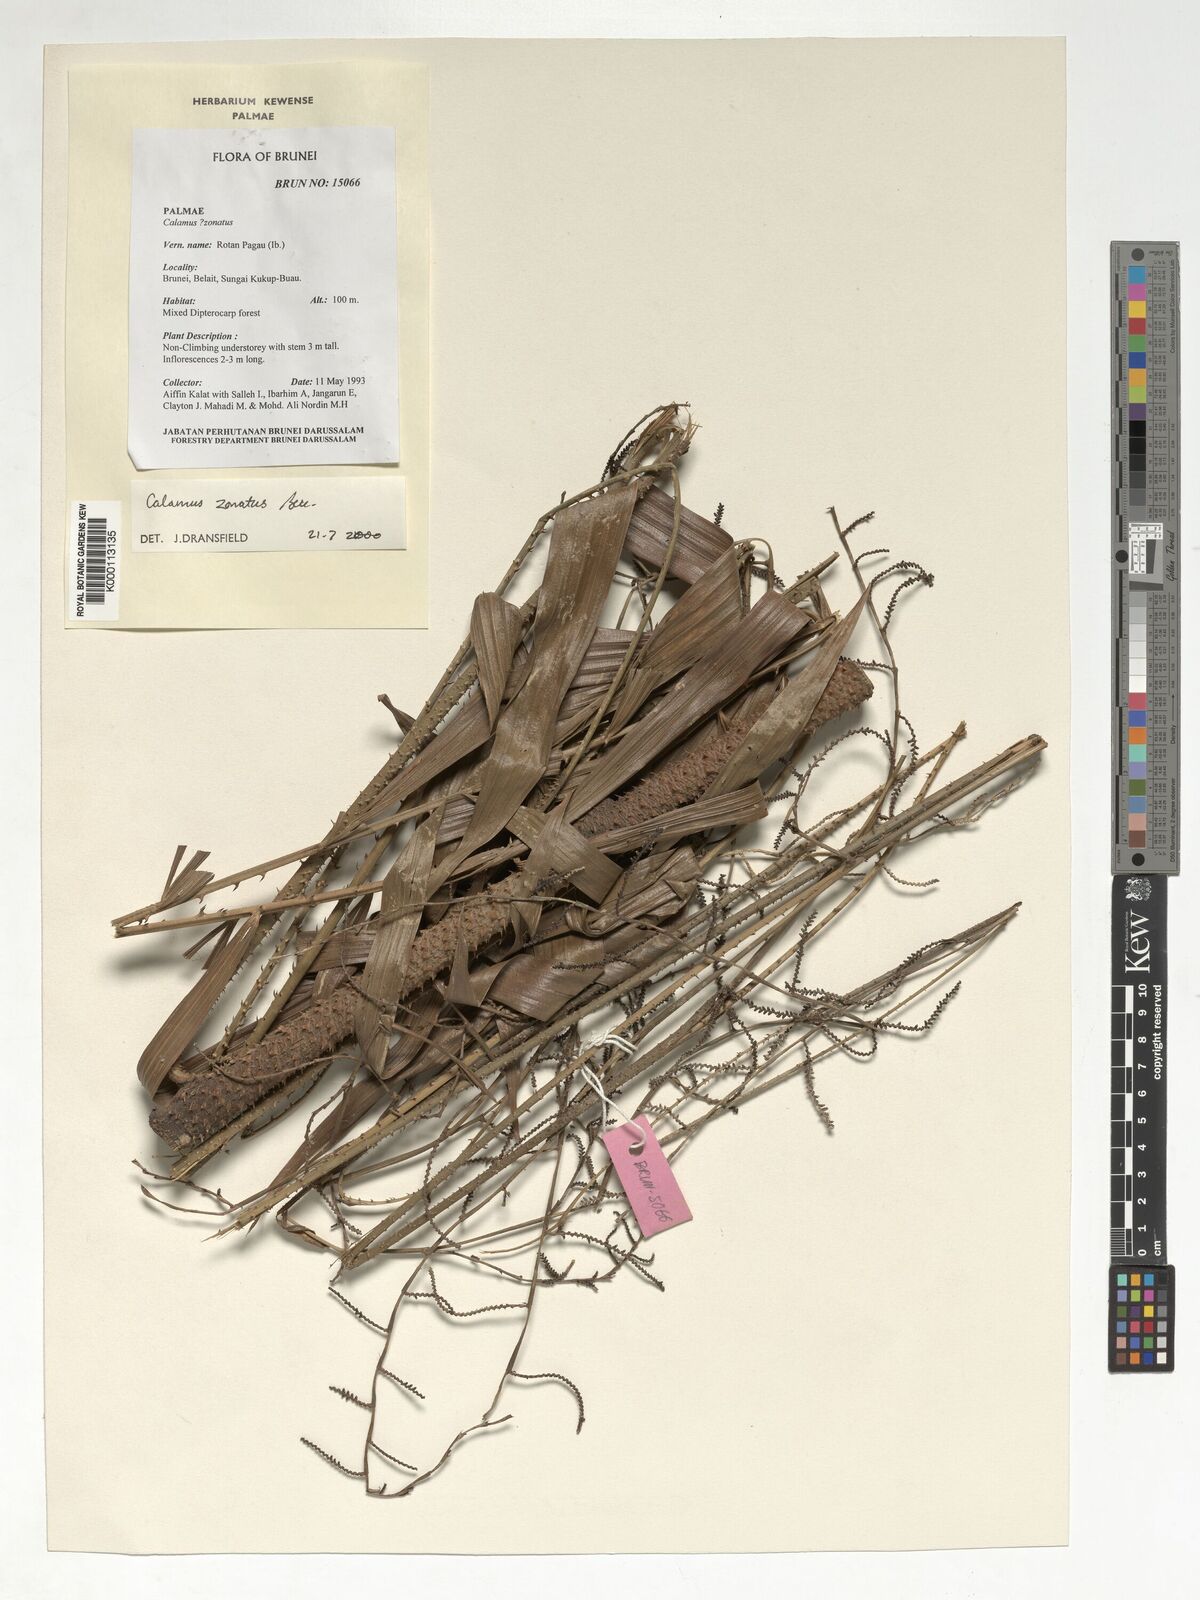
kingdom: Plantae
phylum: Tracheophyta
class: Liliopsida
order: Arecales
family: Arecaceae
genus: Calamus
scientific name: Calamus zonatus
